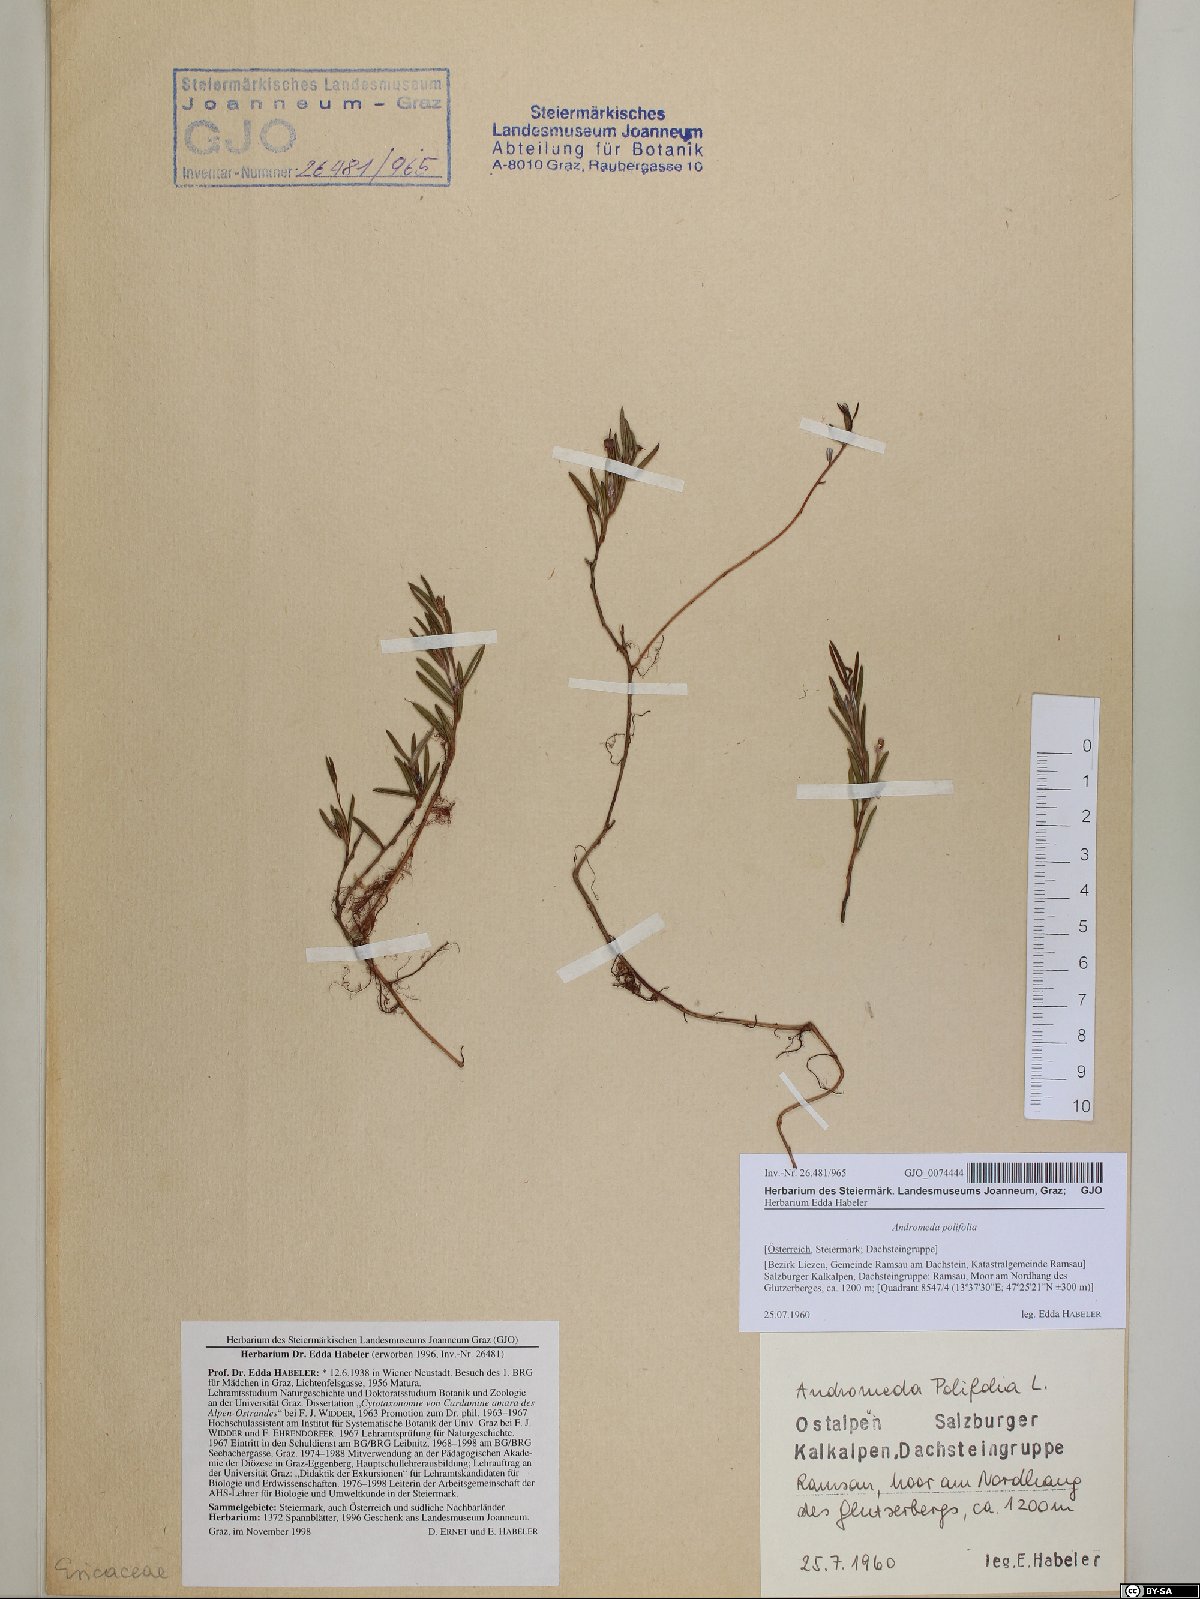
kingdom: Plantae
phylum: Tracheophyta
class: Magnoliopsida
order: Ericales
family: Ericaceae
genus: Andromeda
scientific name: Andromeda polifolia
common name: Bog-rosemary
